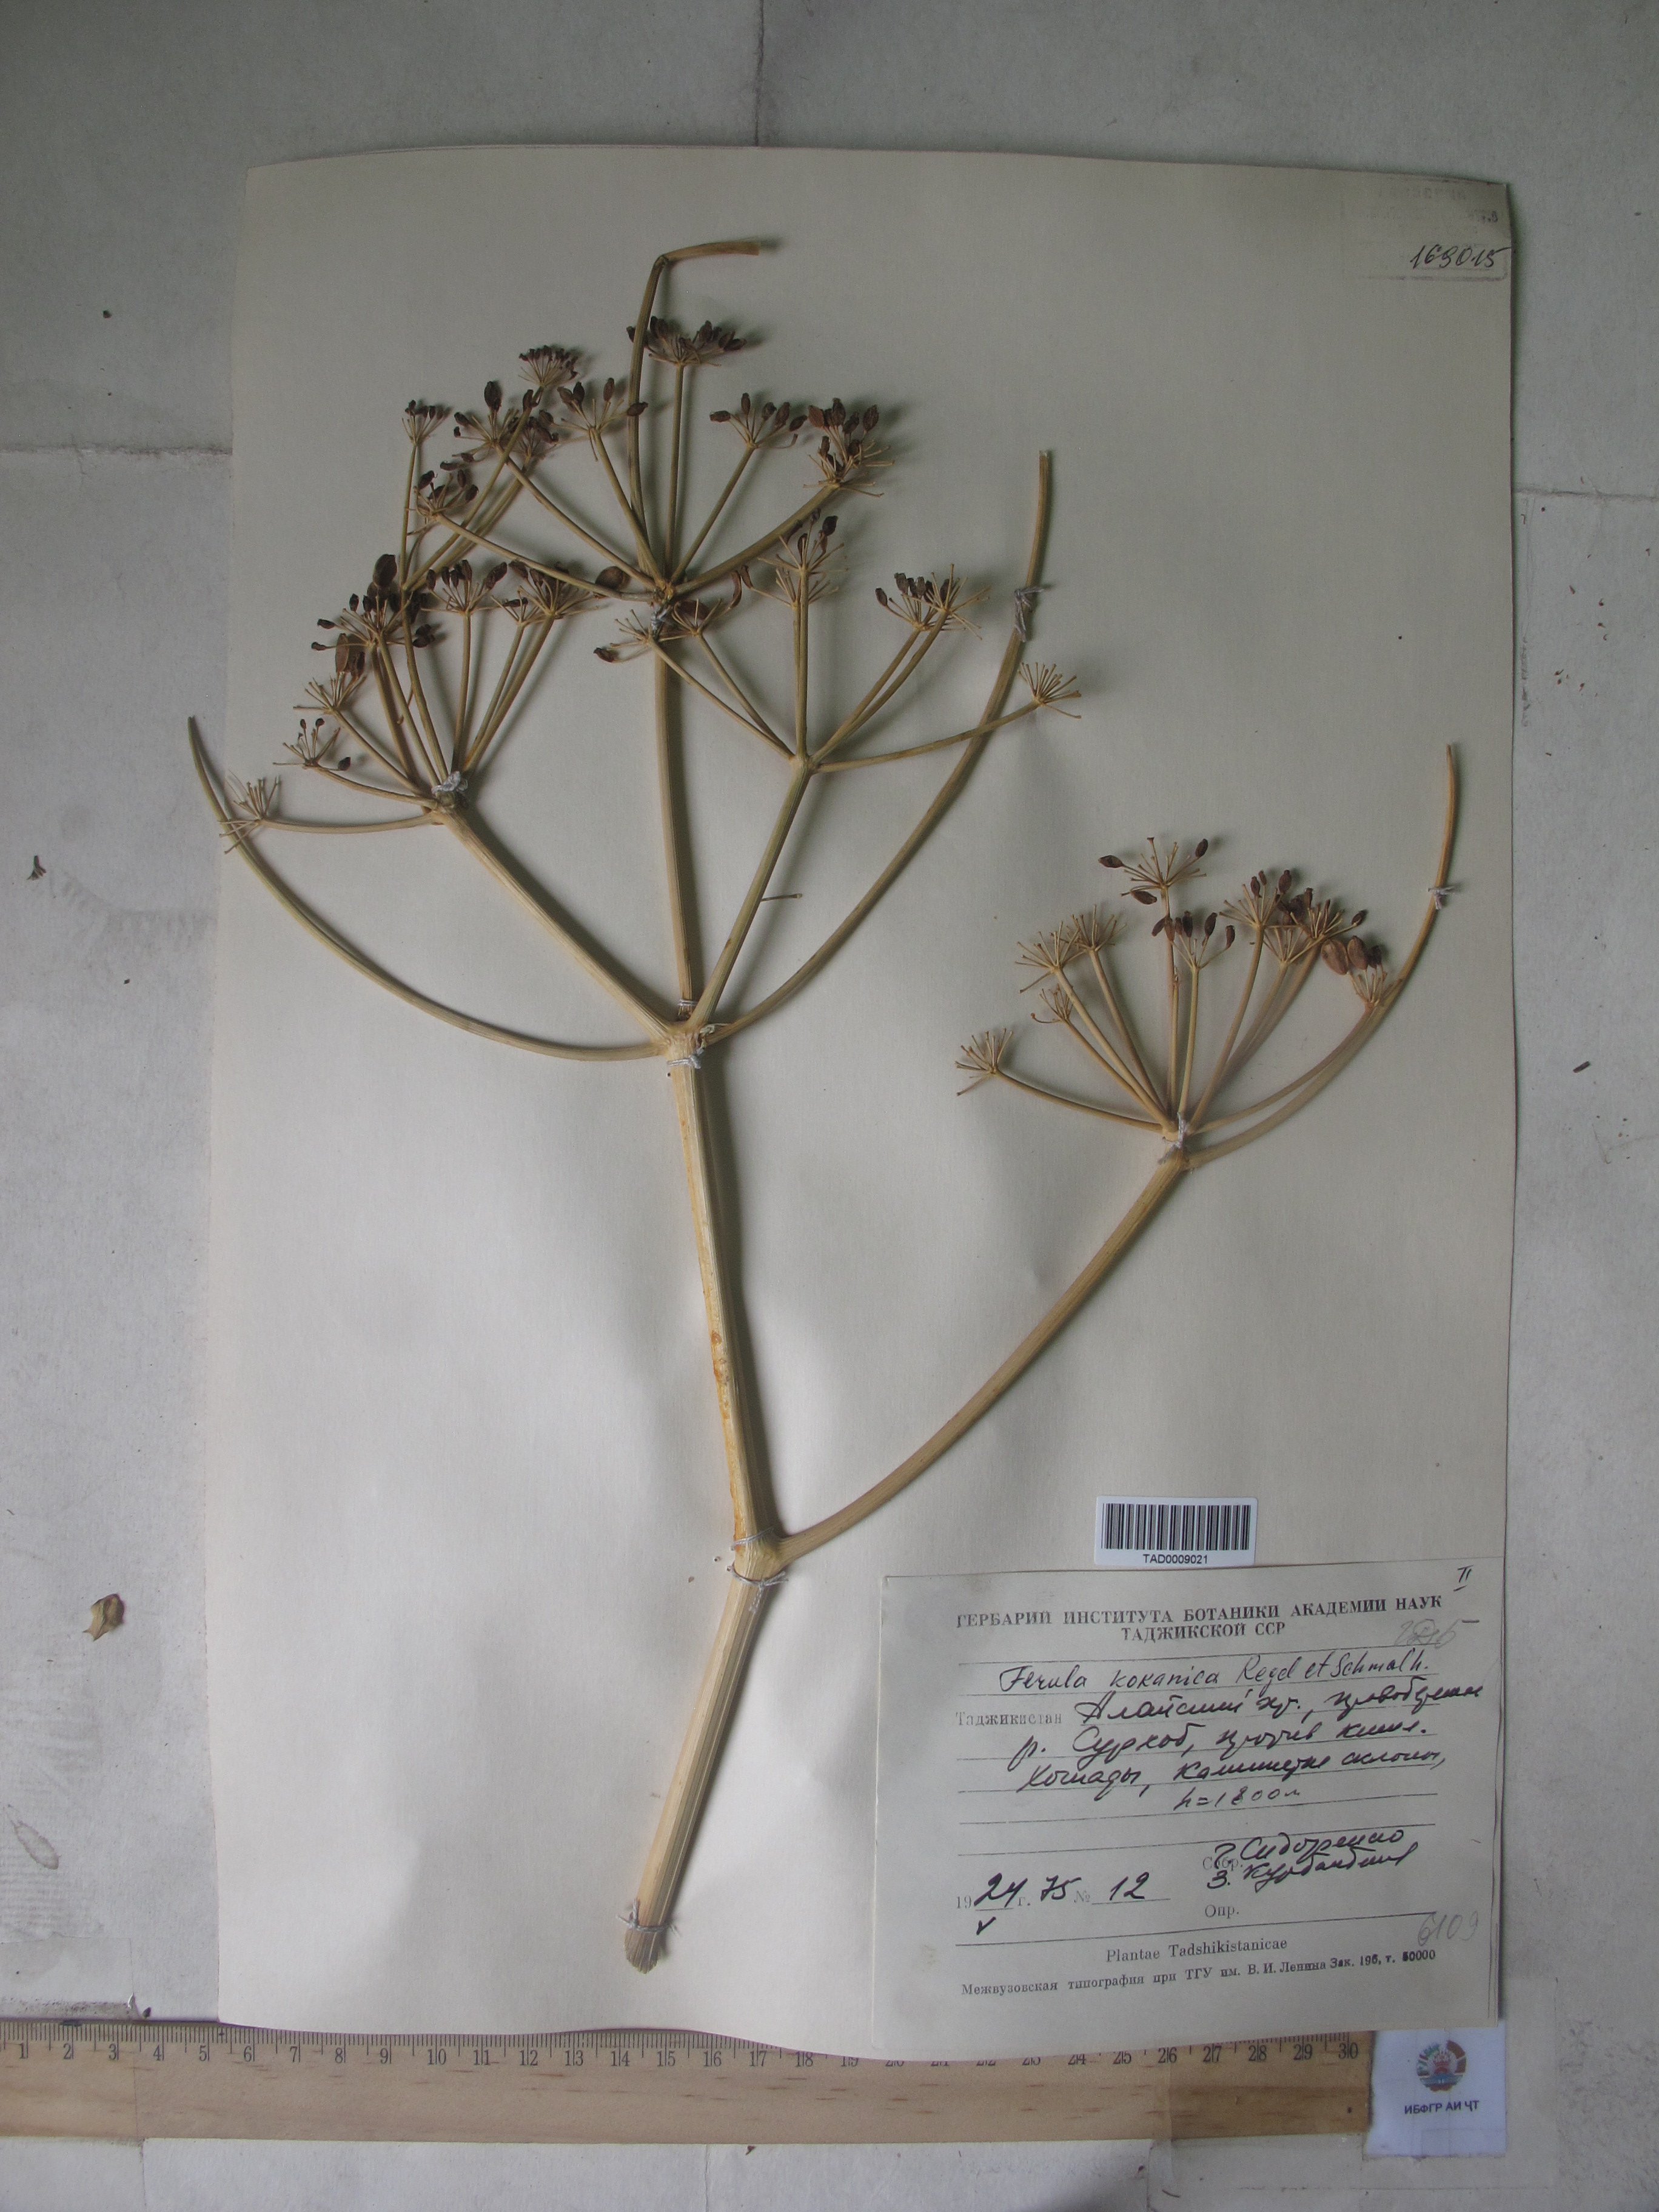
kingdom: Plantae
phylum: Tracheophyta
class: Magnoliopsida
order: Apiales
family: Apiaceae
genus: Ferula
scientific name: Ferula kokanica
